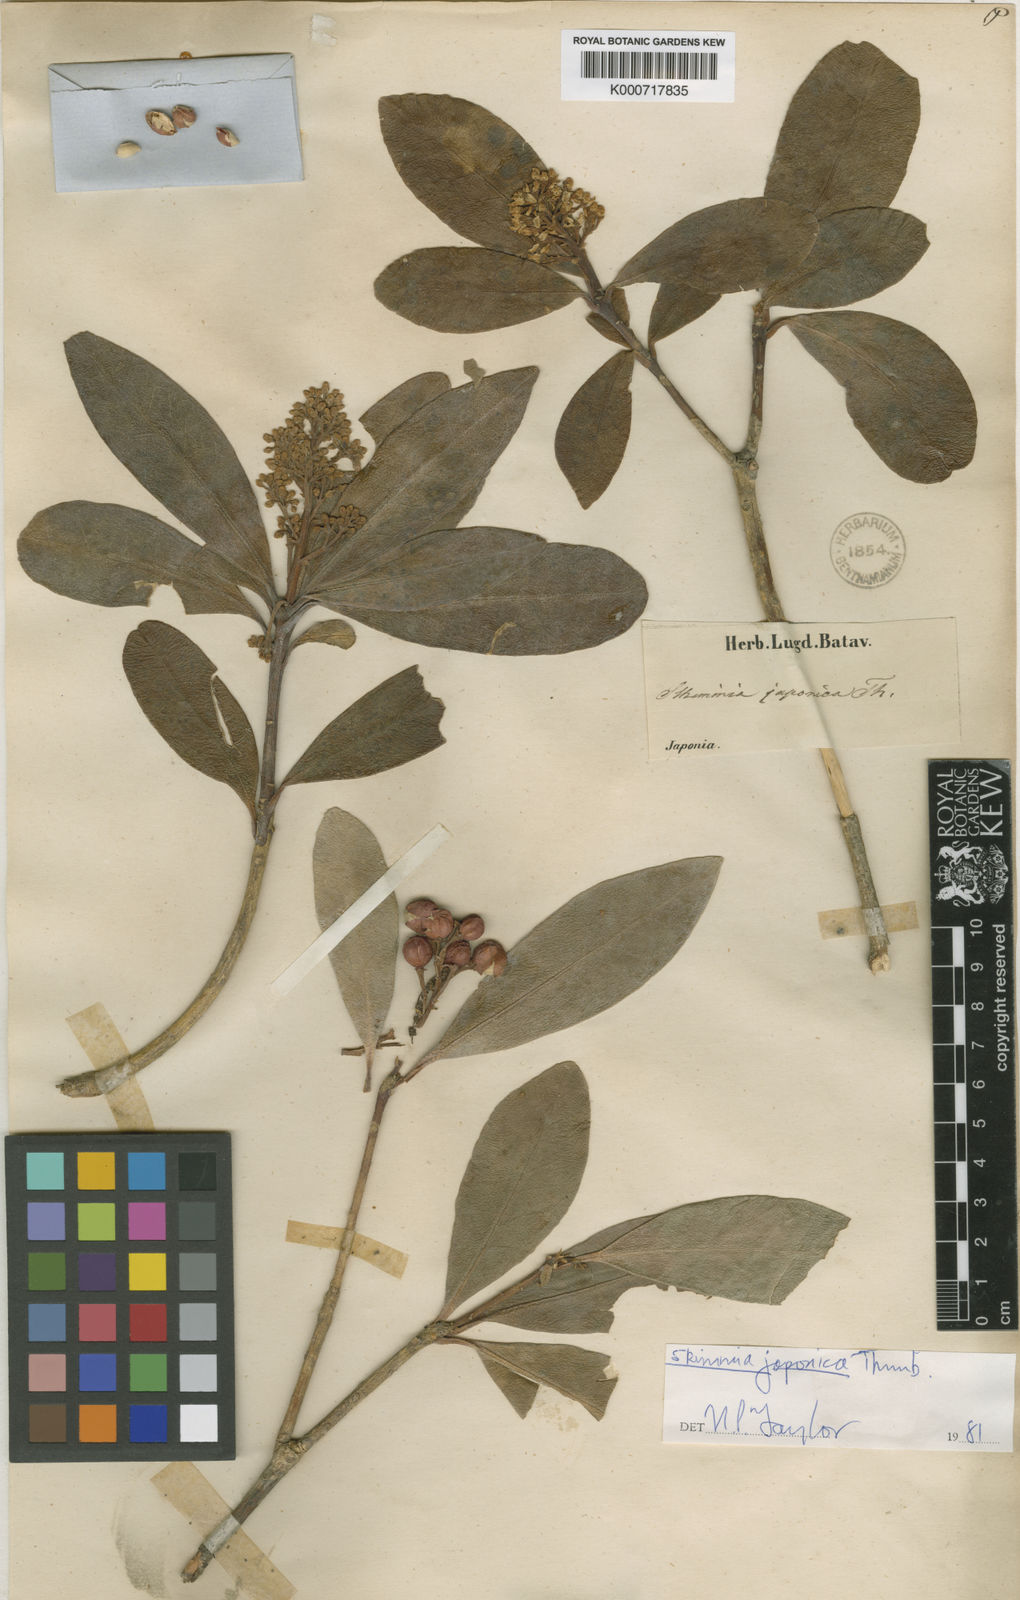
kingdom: Plantae
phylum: Tracheophyta
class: Magnoliopsida
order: Sapindales
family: Rutaceae
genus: Skimmia
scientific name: Skimmia japonica
